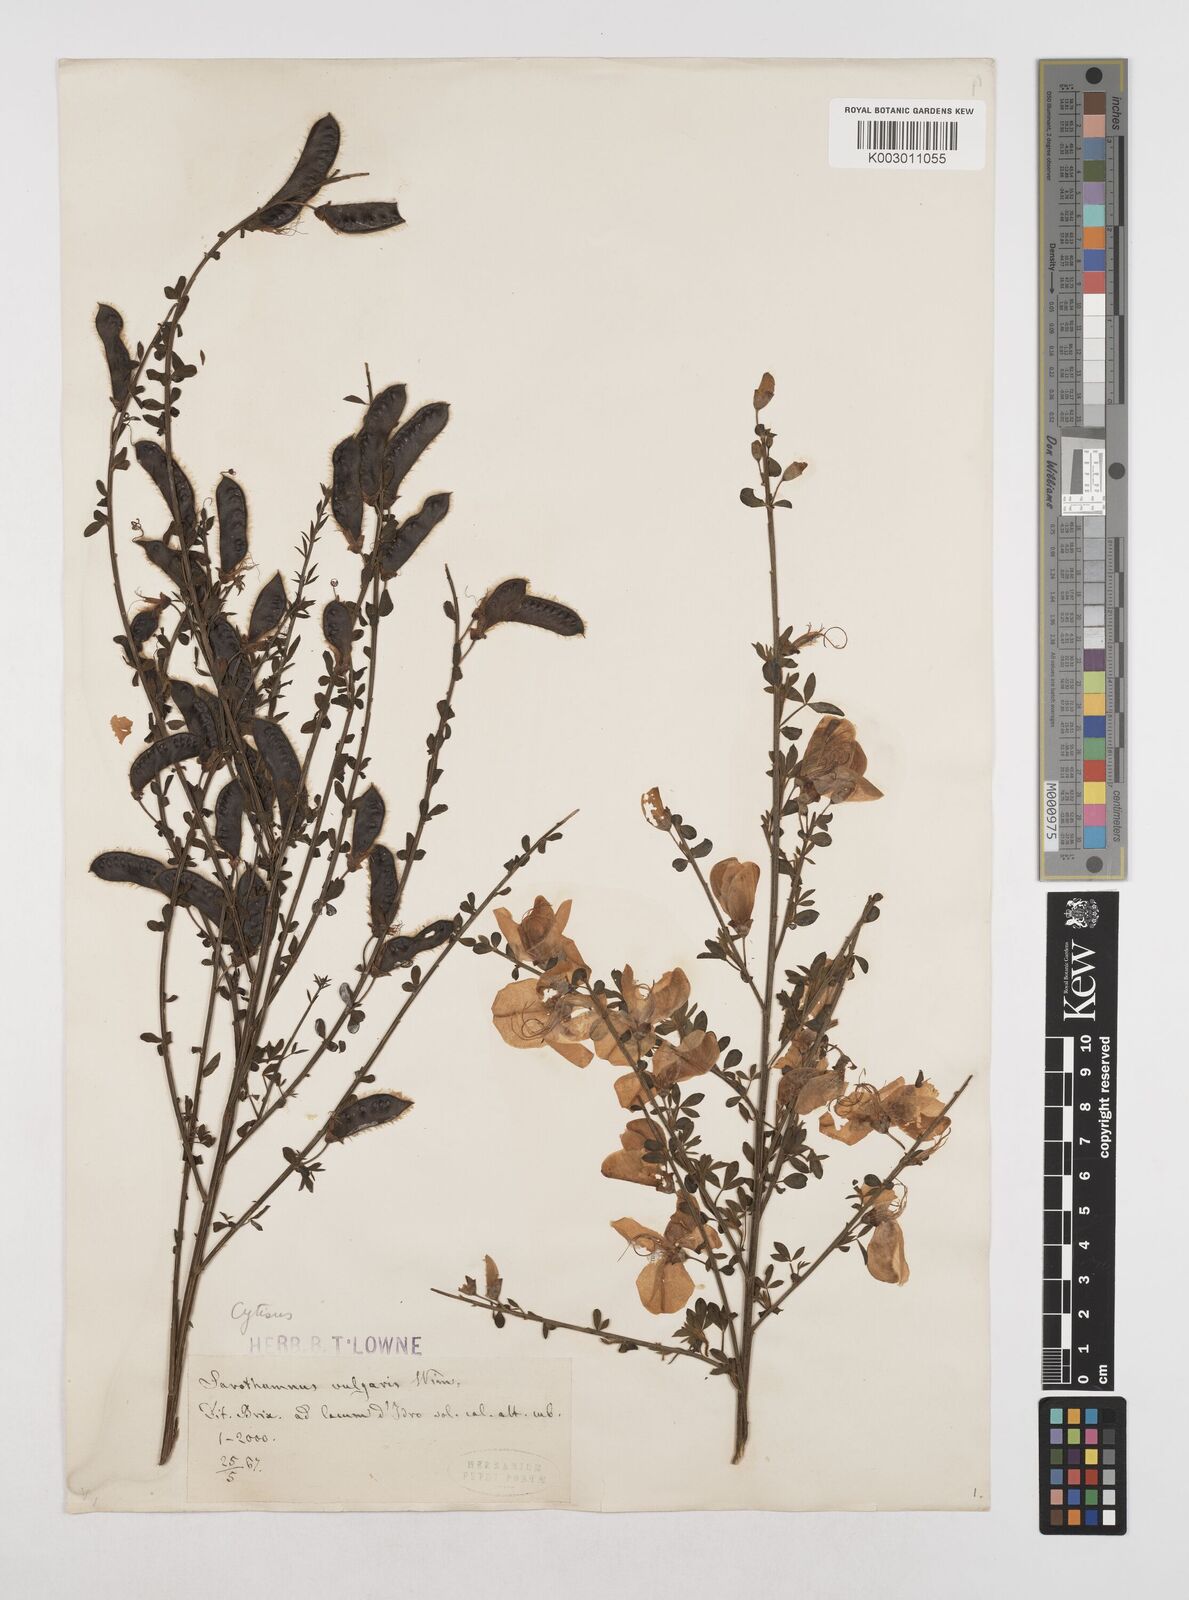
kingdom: Plantae
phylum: Tracheophyta
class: Magnoliopsida
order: Fabales
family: Fabaceae
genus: Cytisus
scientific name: Cytisus
